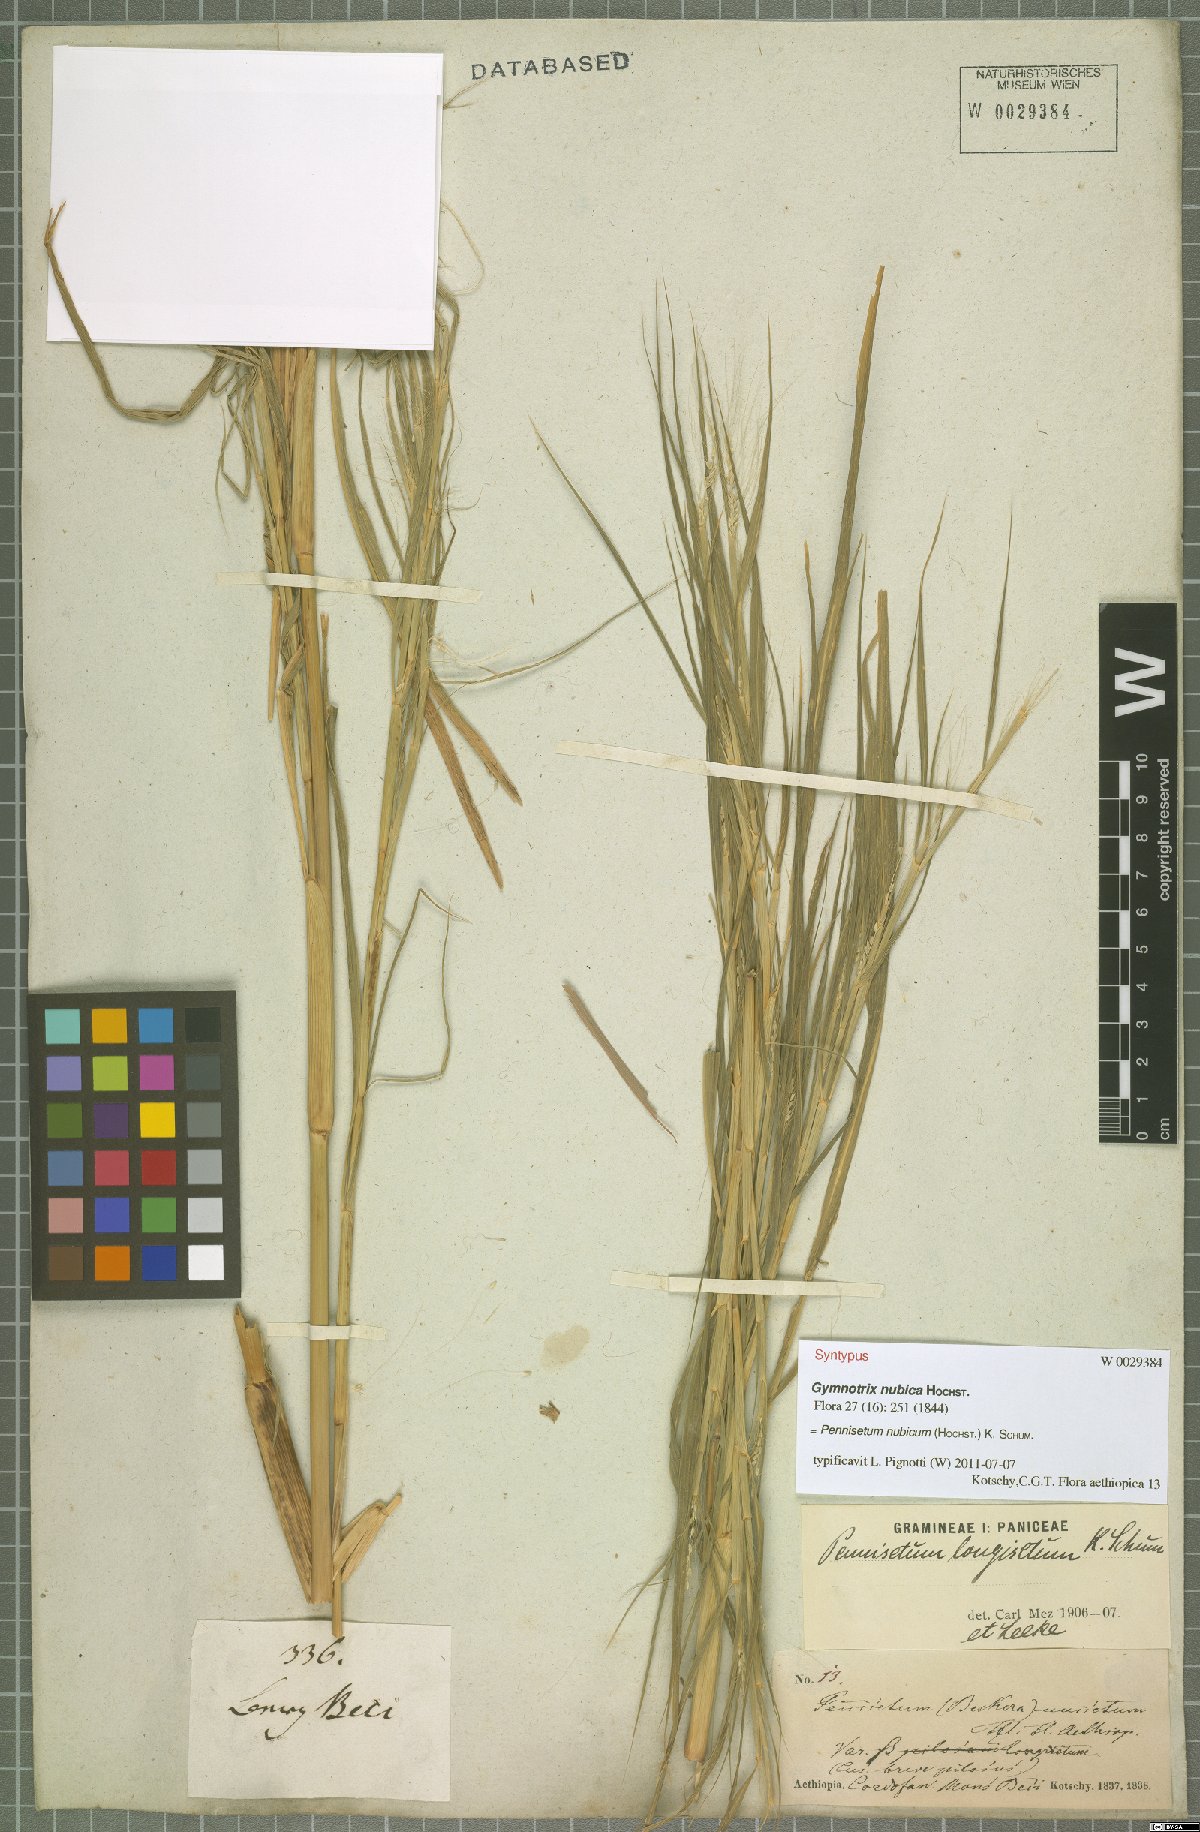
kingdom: Plantae
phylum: Tracheophyta
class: Liliopsida
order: Poales
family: Poaceae
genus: Cenchrus
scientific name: Cenchrus nubicus
